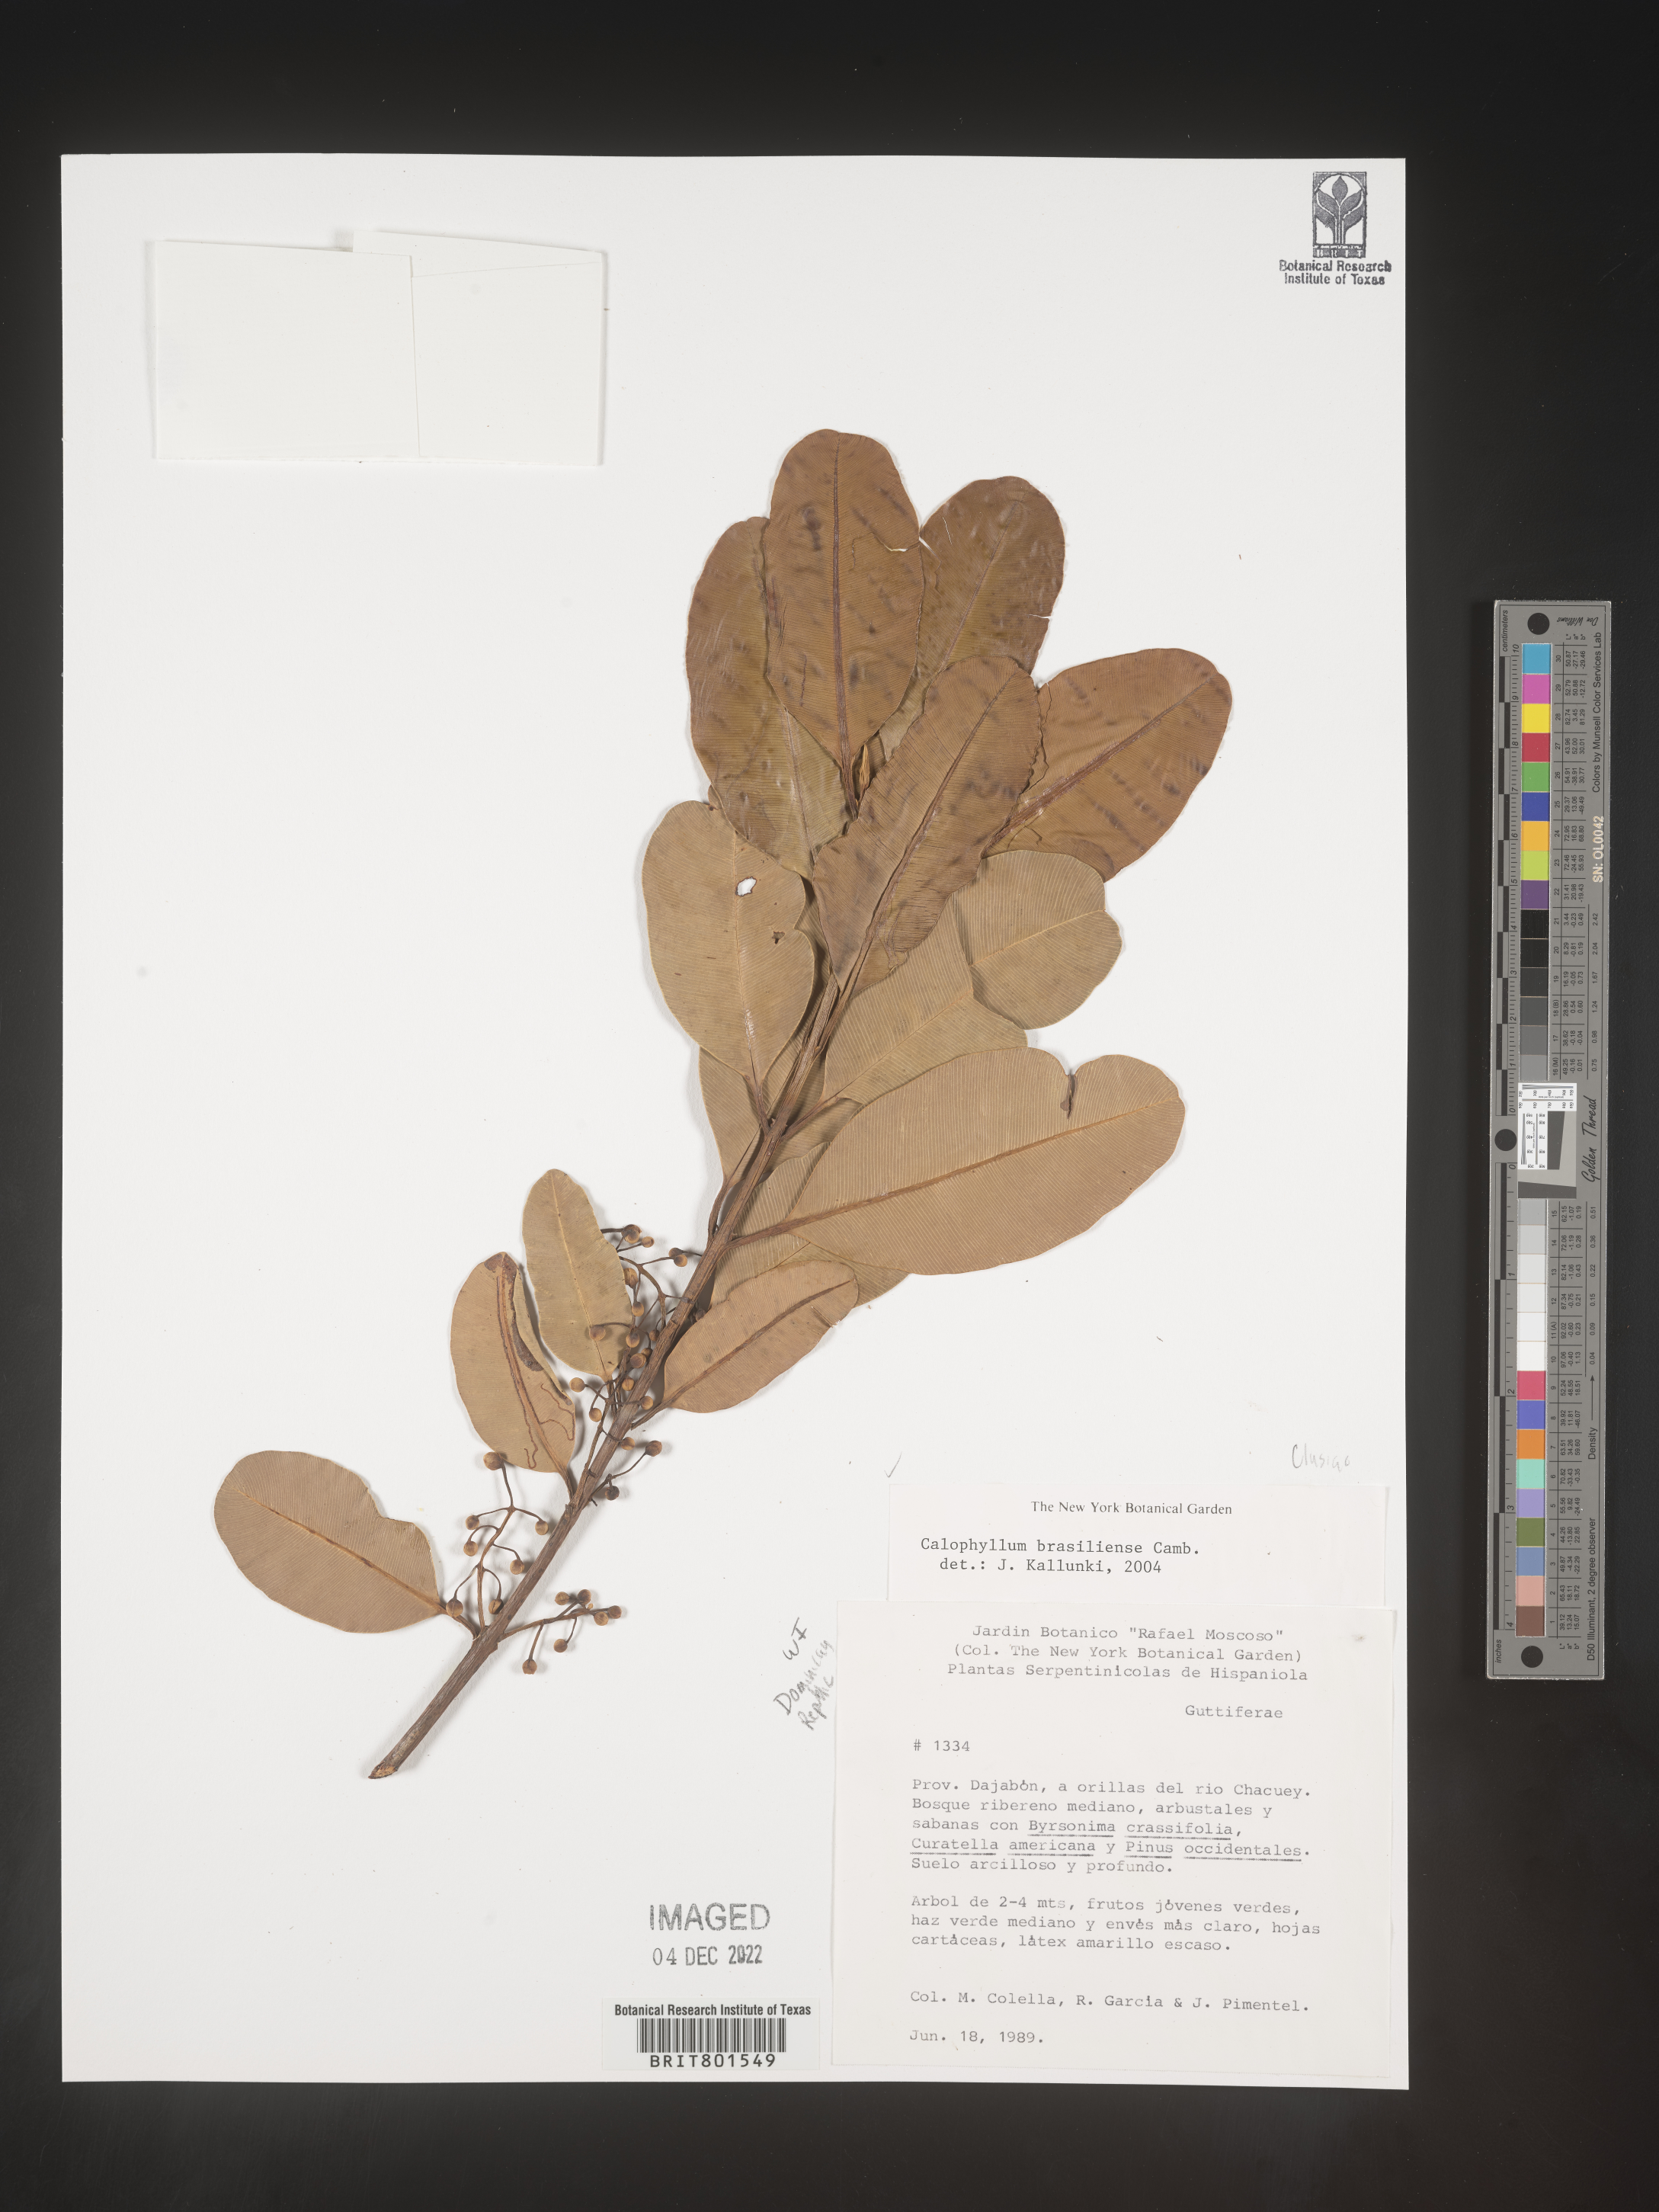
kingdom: Plantae
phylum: Tracheophyta
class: Magnoliopsida
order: Malpighiales
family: Calophyllaceae
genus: Calophyllum
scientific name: Calophyllum
